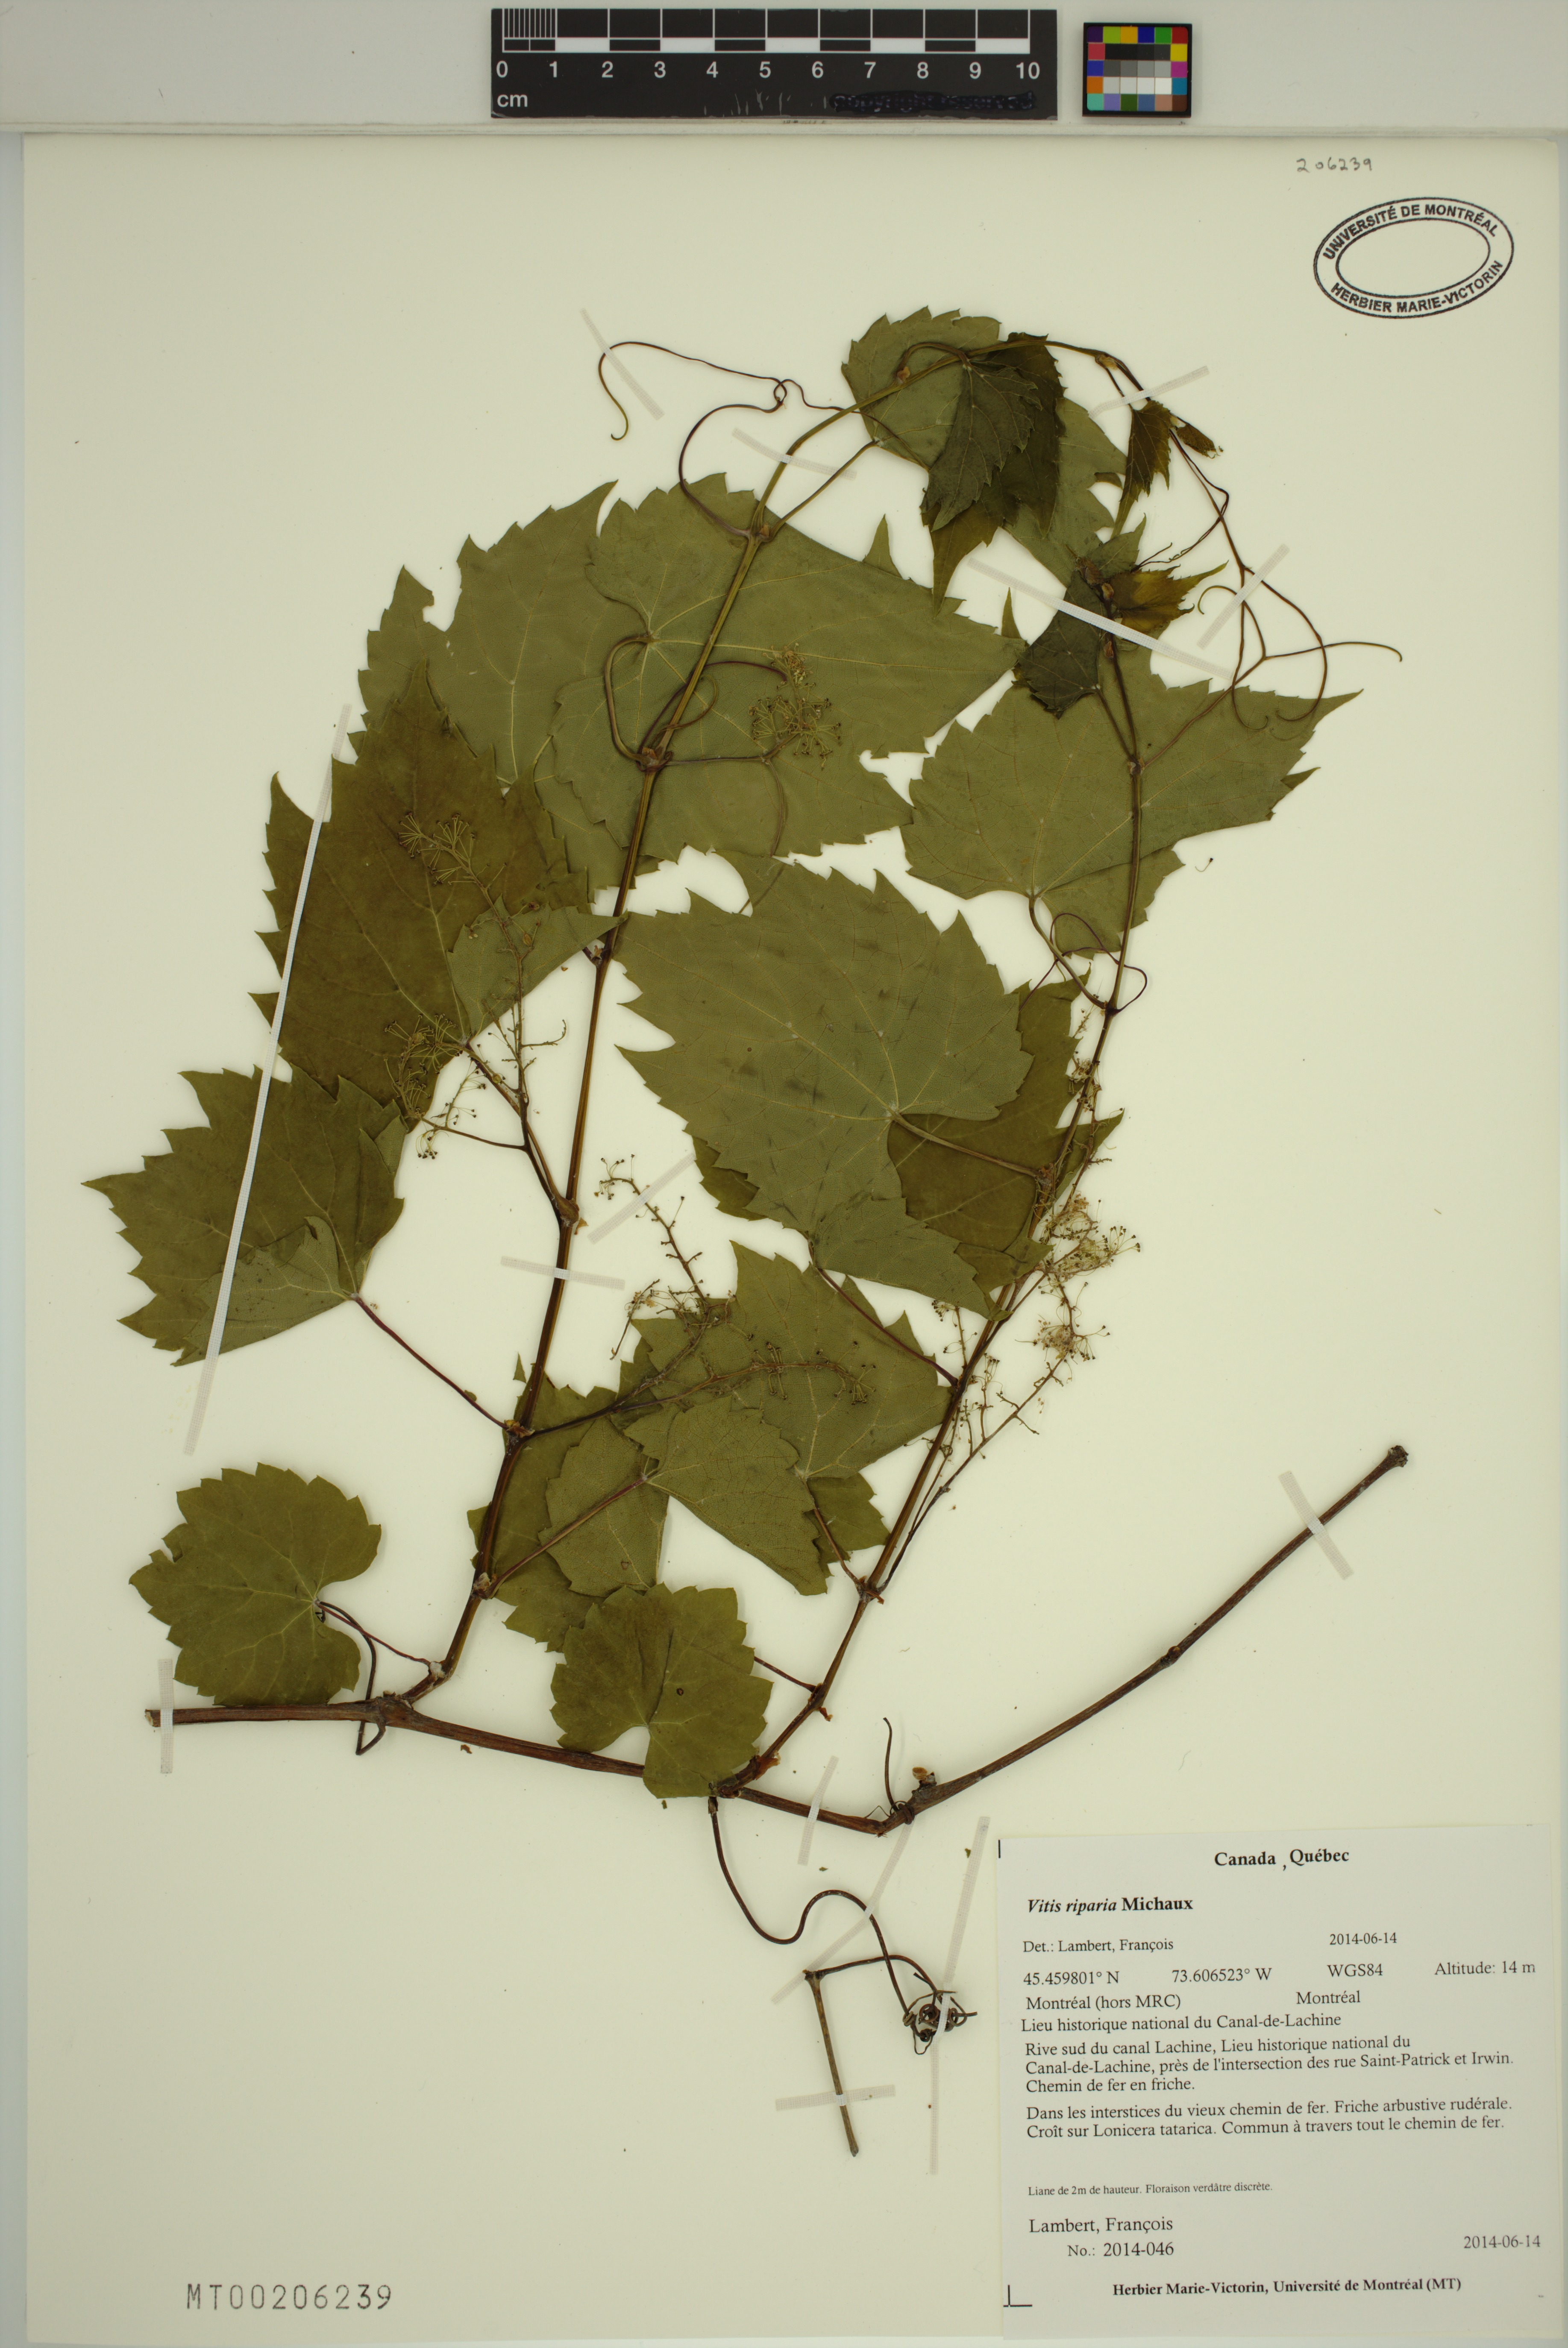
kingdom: Plantae
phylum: Tracheophyta
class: Magnoliopsida
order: Vitales
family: Vitaceae
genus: Vitis
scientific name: Vitis riparia
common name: Frost grape
